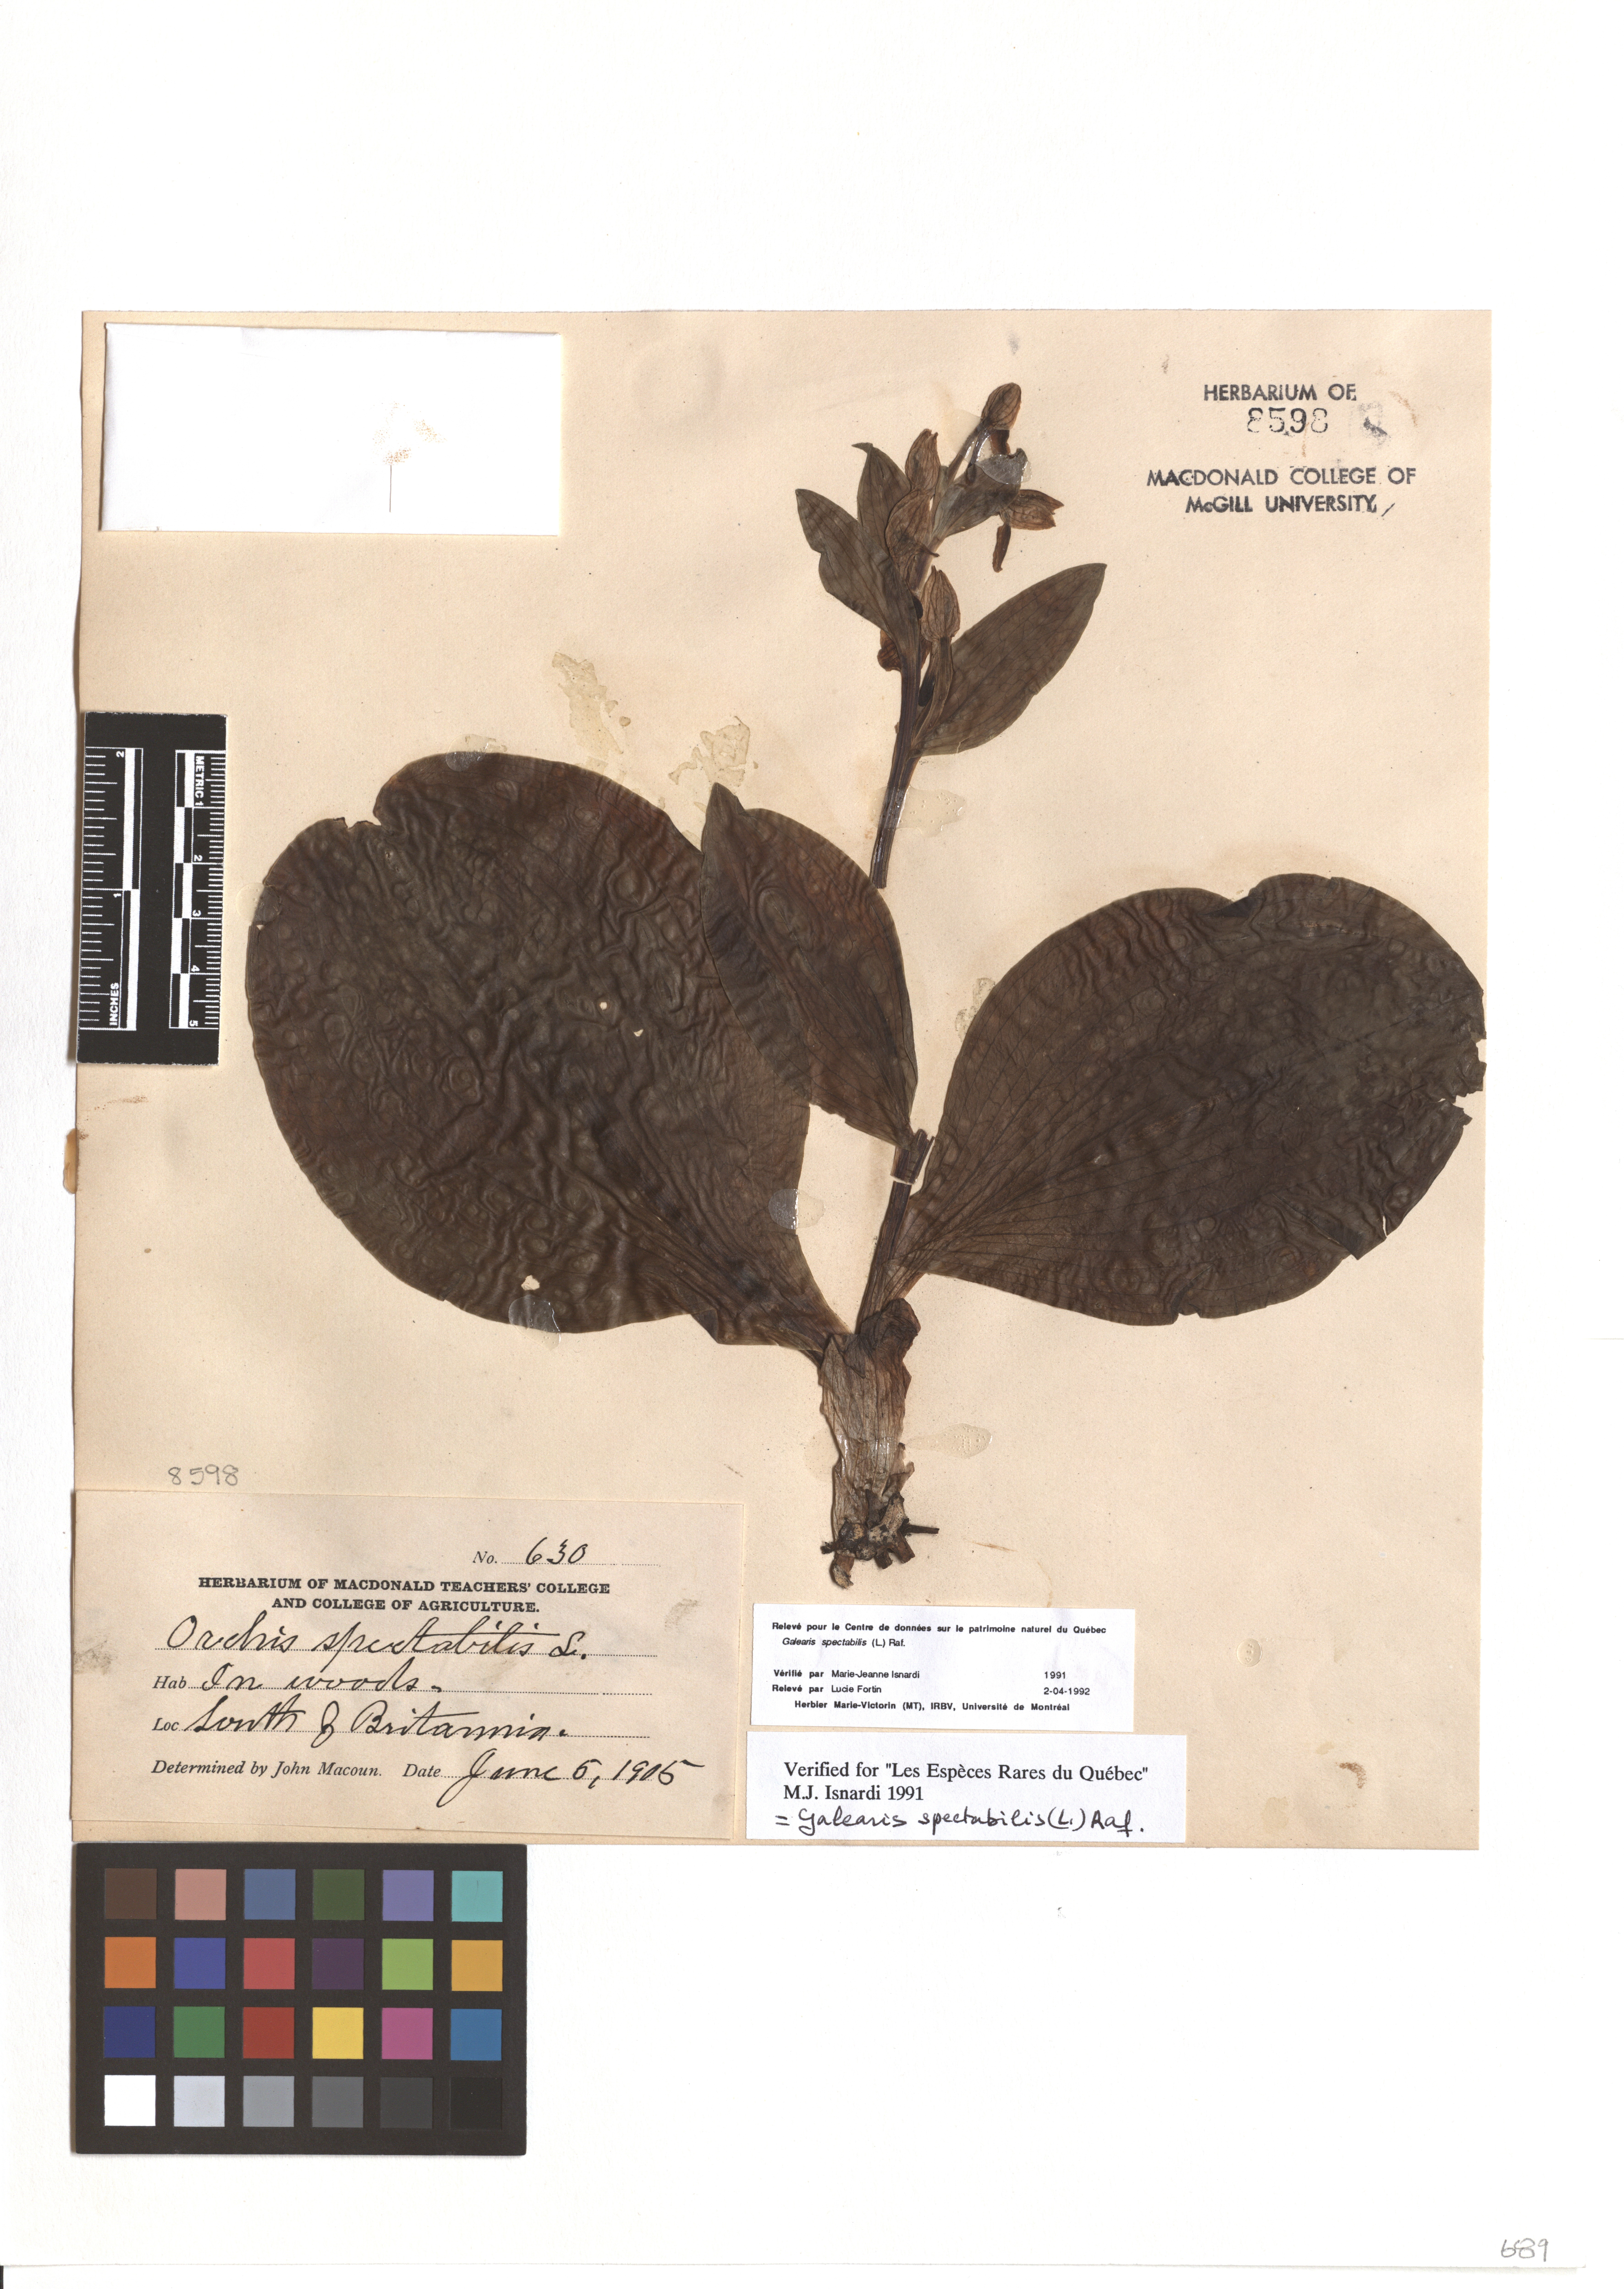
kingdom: Plantae
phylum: Tracheophyta
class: Liliopsida
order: Asparagales
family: Orchidaceae
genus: Galearis
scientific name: Galearis spectabilis
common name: Purple-hooded orchis
